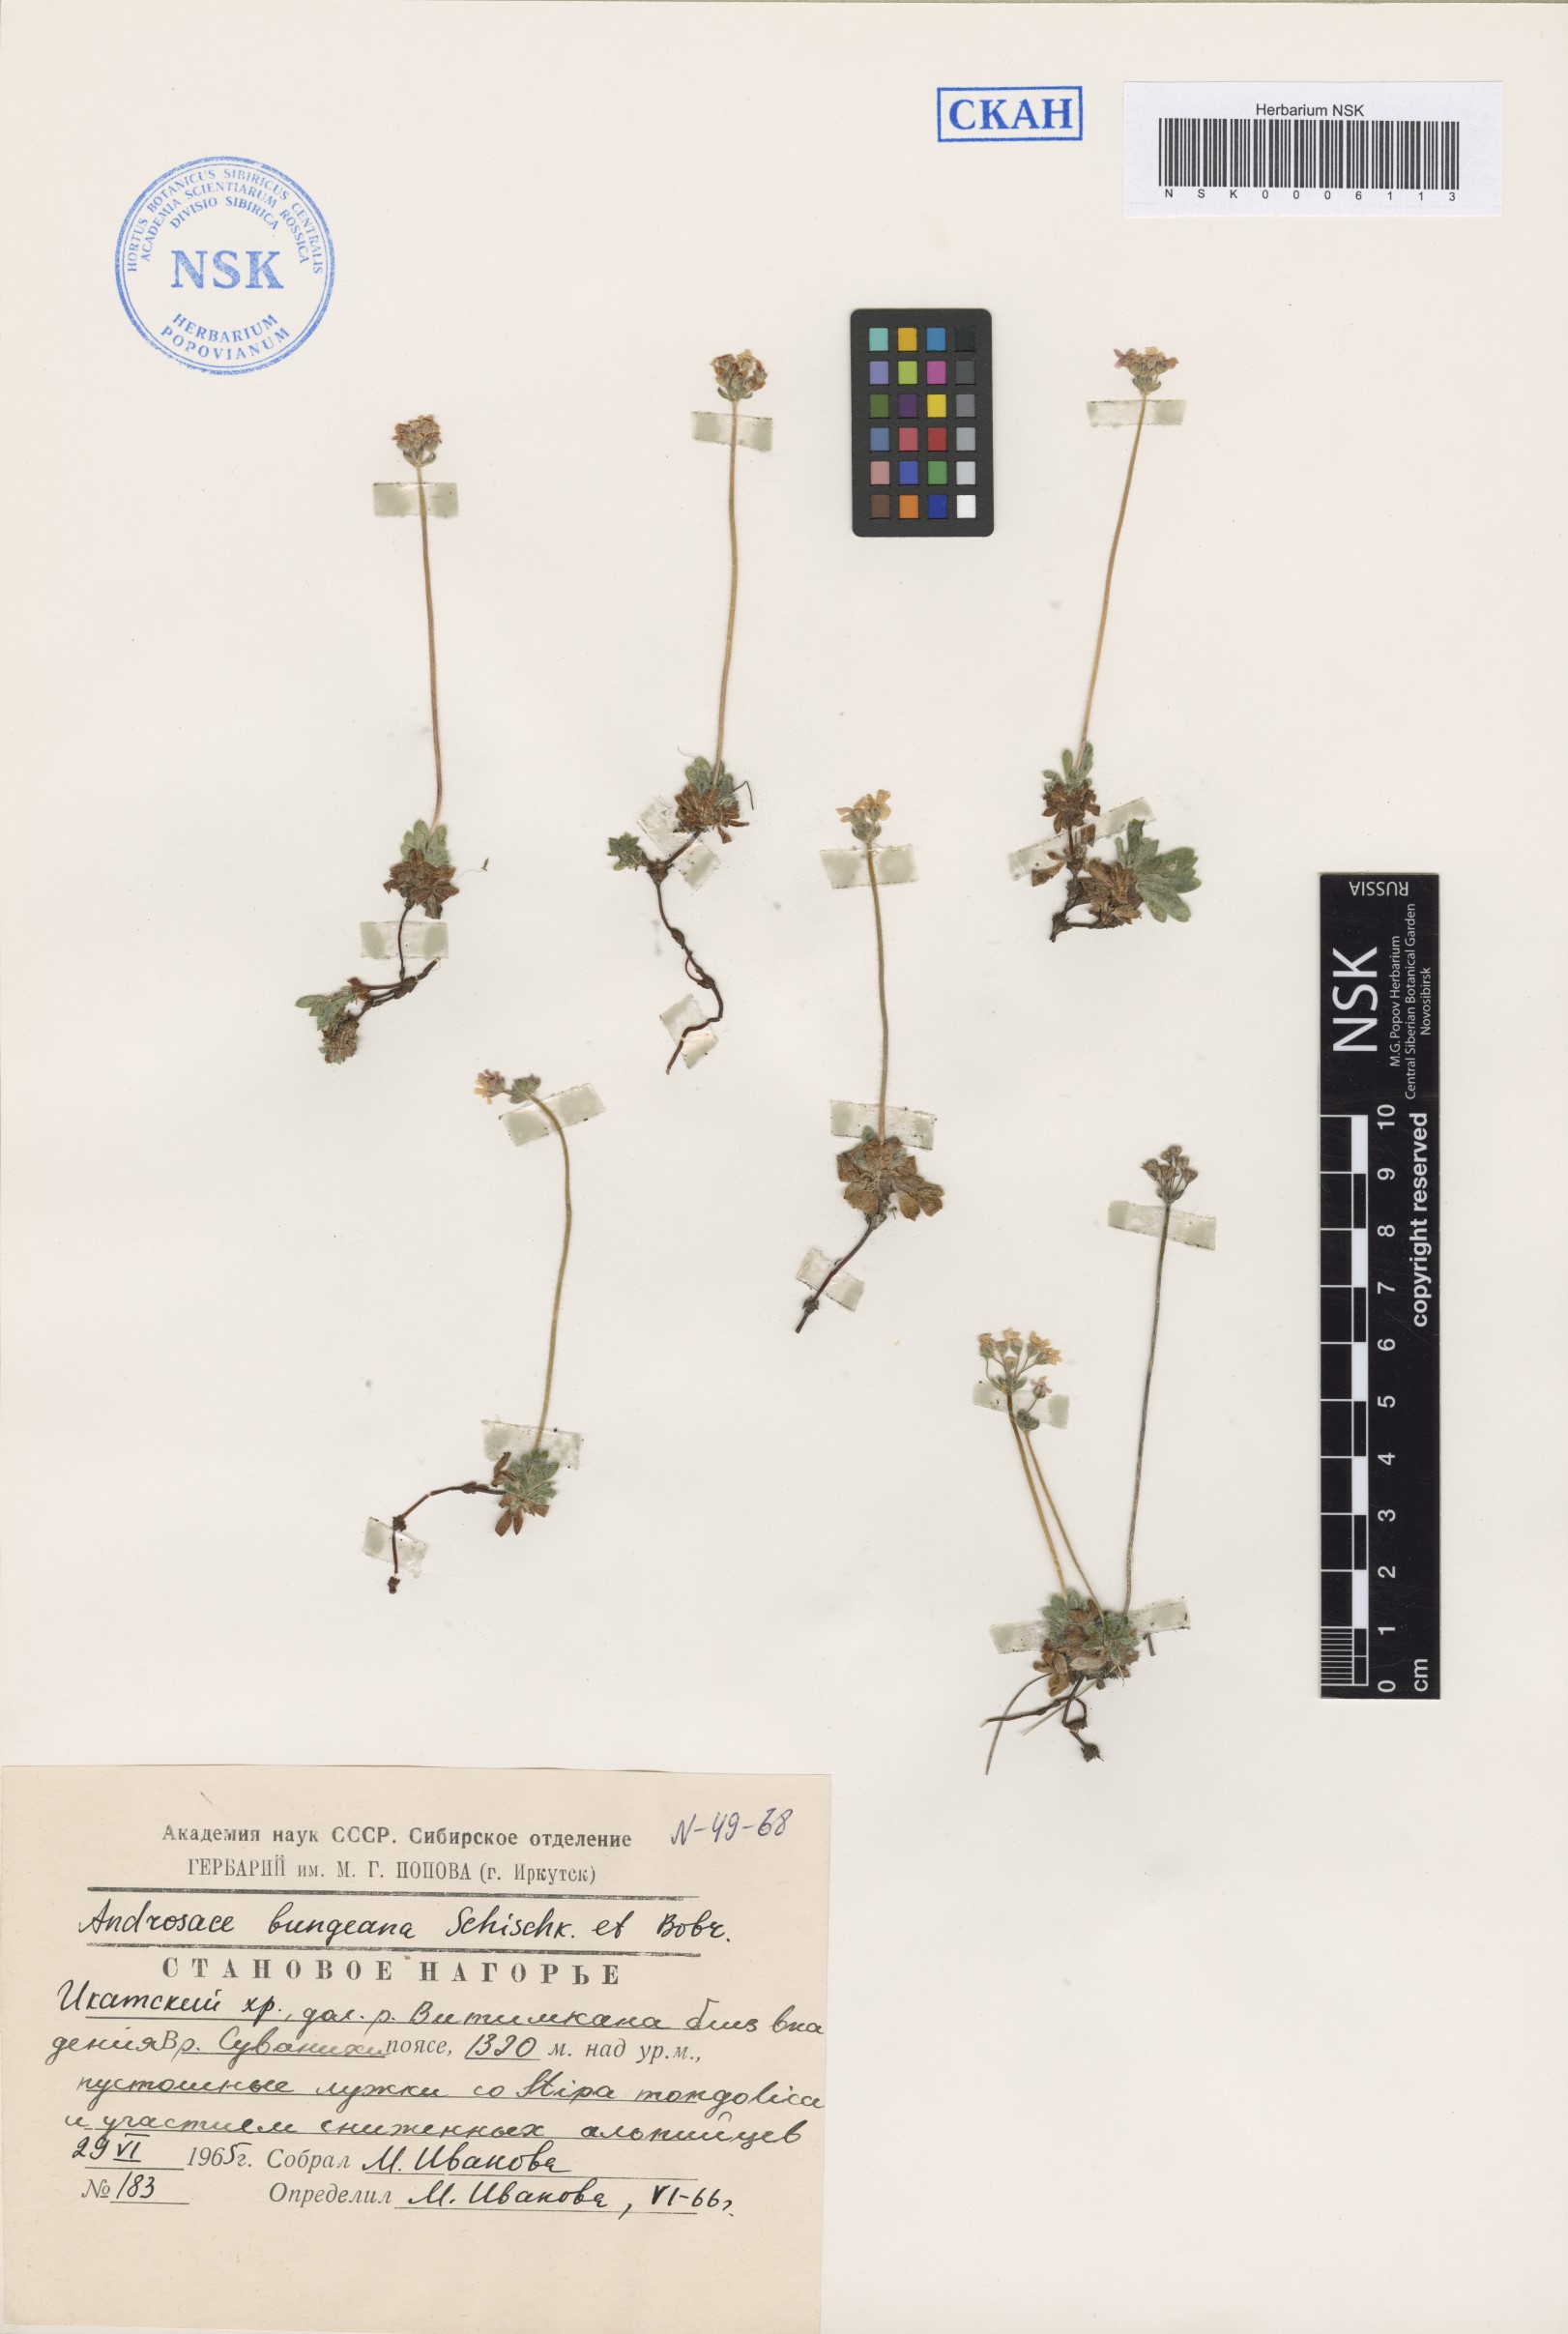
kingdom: Plantae
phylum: Tracheophyta
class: Magnoliopsida
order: Ericales
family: Primulaceae
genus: Androsace
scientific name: Androsace bungeana
